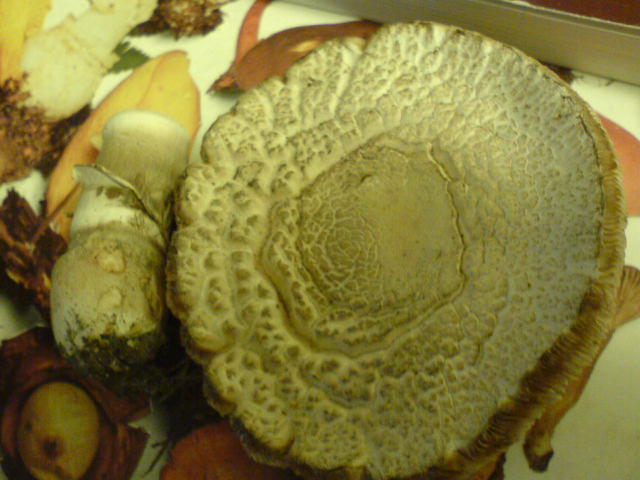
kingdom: Fungi
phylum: Basidiomycota
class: Agaricomycetes
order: Agaricales
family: Agaricaceae
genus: Leucoagaricus
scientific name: Leucoagaricus carneifolius
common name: grånende silkehat
